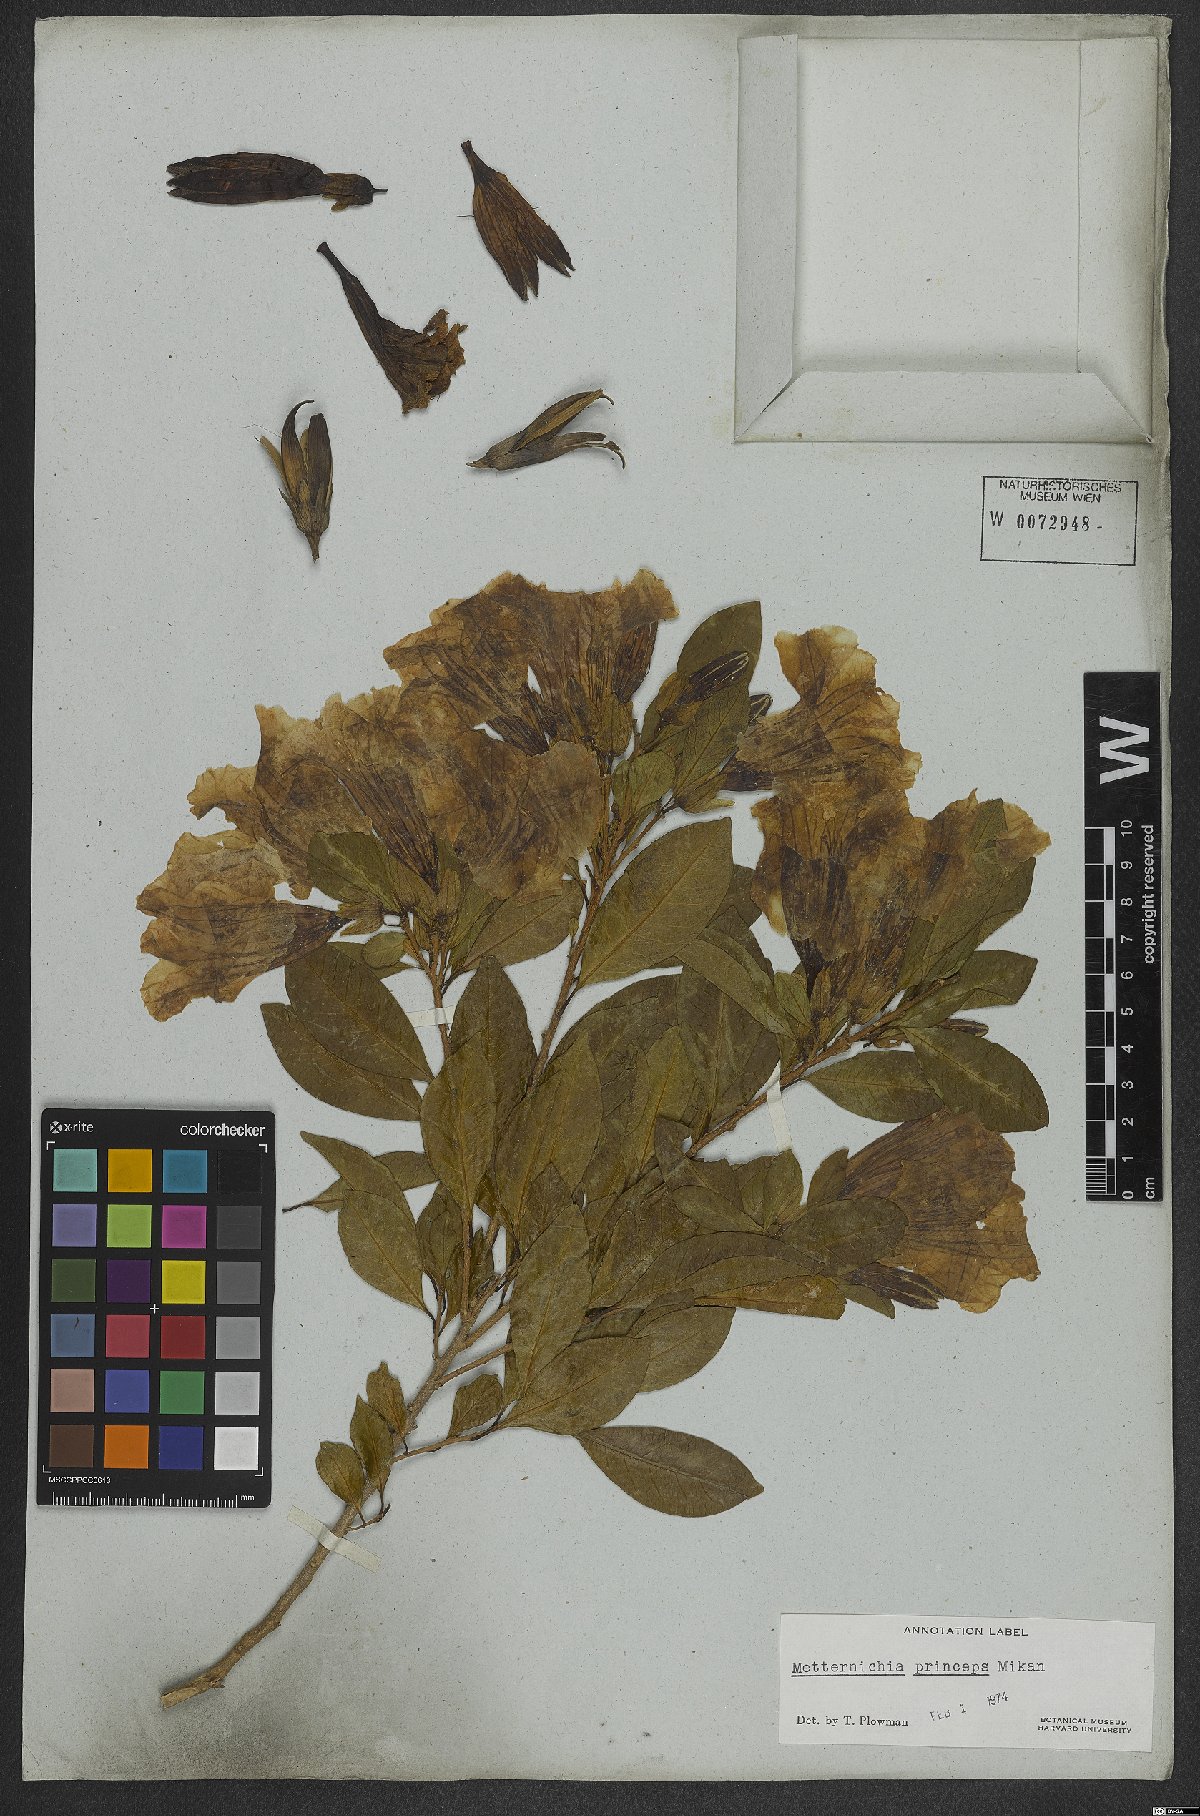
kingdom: Plantae
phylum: Tracheophyta
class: Magnoliopsida
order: Solanales
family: Solanaceae
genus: Metternichia
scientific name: Metternichia principis
